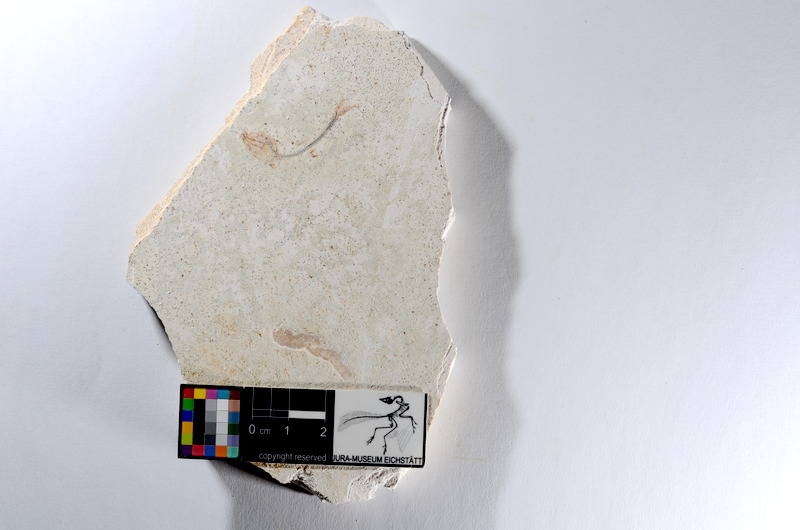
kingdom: Animalia
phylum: Chordata
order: Salmoniformes
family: Orthogonikleithridae
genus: Orthogonikleithrus
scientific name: Orthogonikleithrus hoelli
